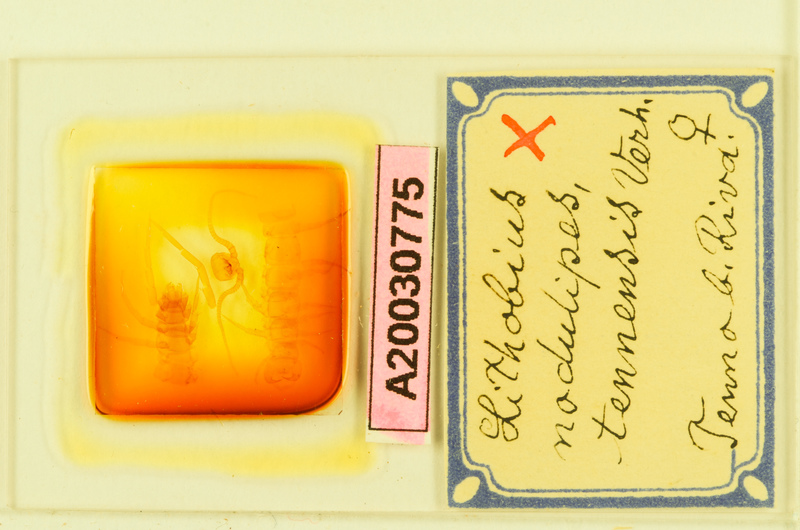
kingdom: Animalia
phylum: Arthropoda
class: Chilopoda
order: Lithobiomorpha
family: Lithobiidae
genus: Lithobius
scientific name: Lithobius nodulipes
